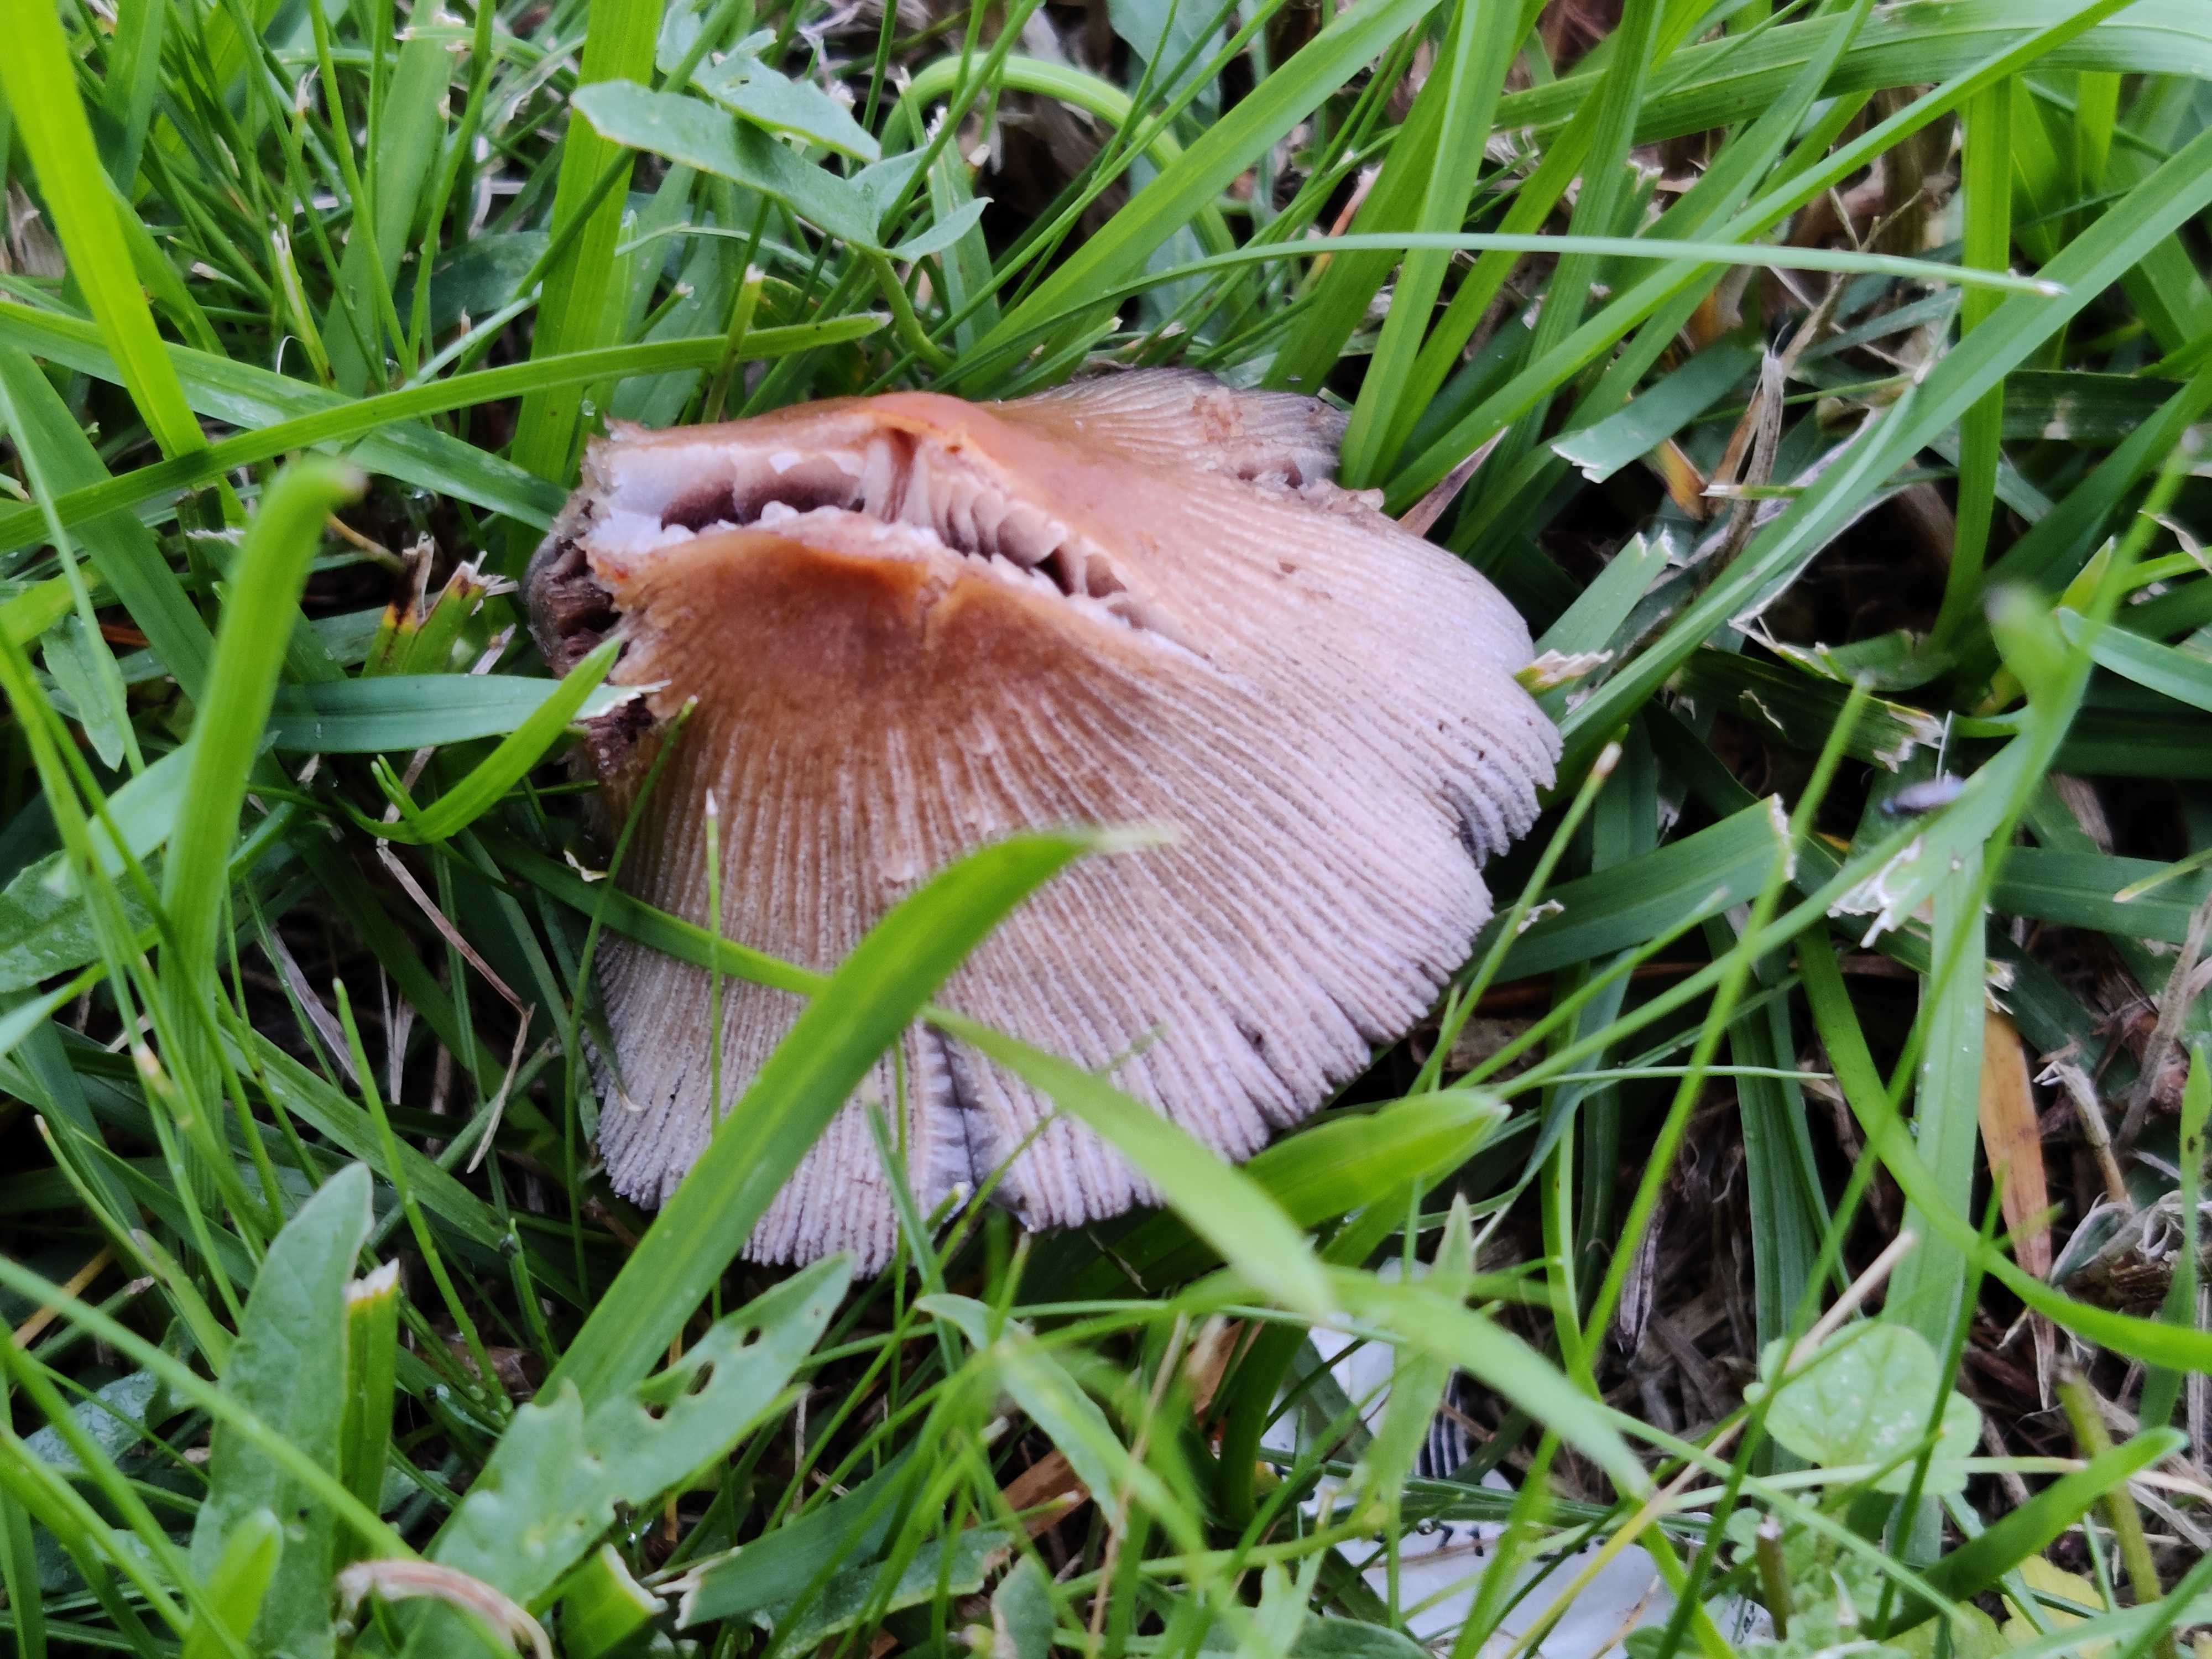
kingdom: Fungi
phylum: Basidiomycota
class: Agaricomycetes
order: Agaricales
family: Psathyrellaceae
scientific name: Psathyrellaceae
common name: mørkhatfamilien
